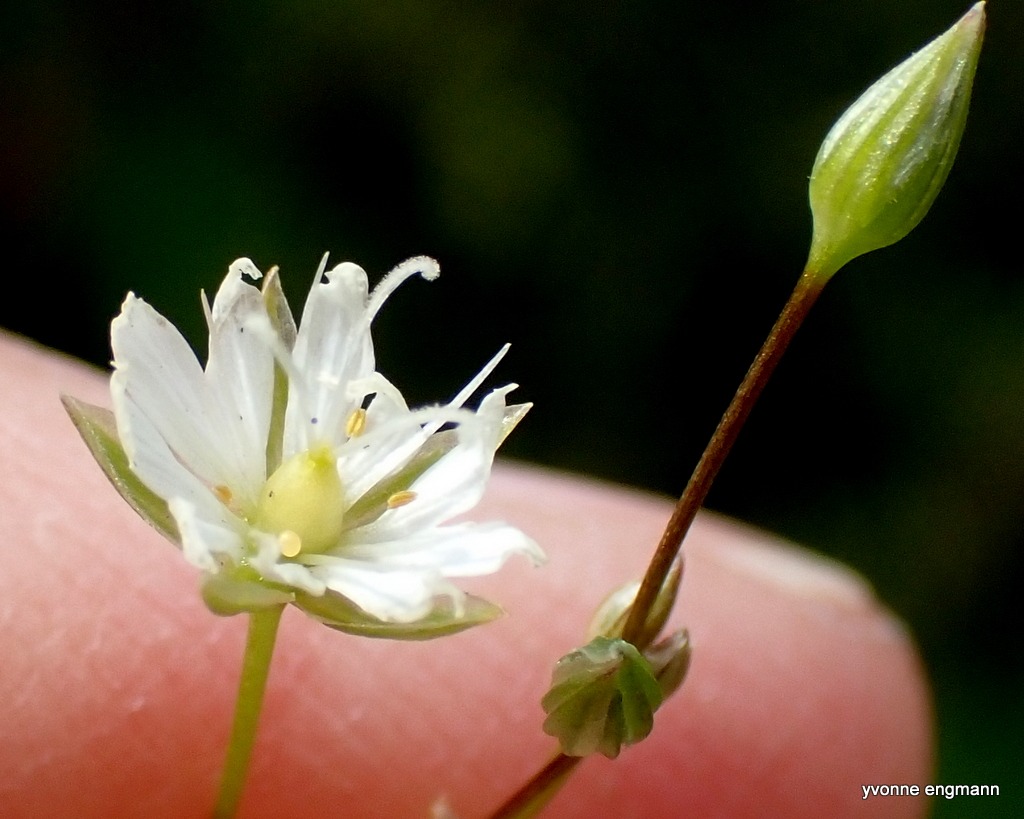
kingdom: Plantae
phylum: Tracheophyta
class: Magnoliopsida
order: Caryophyllales
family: Caryophyllaceae
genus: Stellaria
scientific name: Stellaria graminea
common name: Græsbladet fladstjerne
